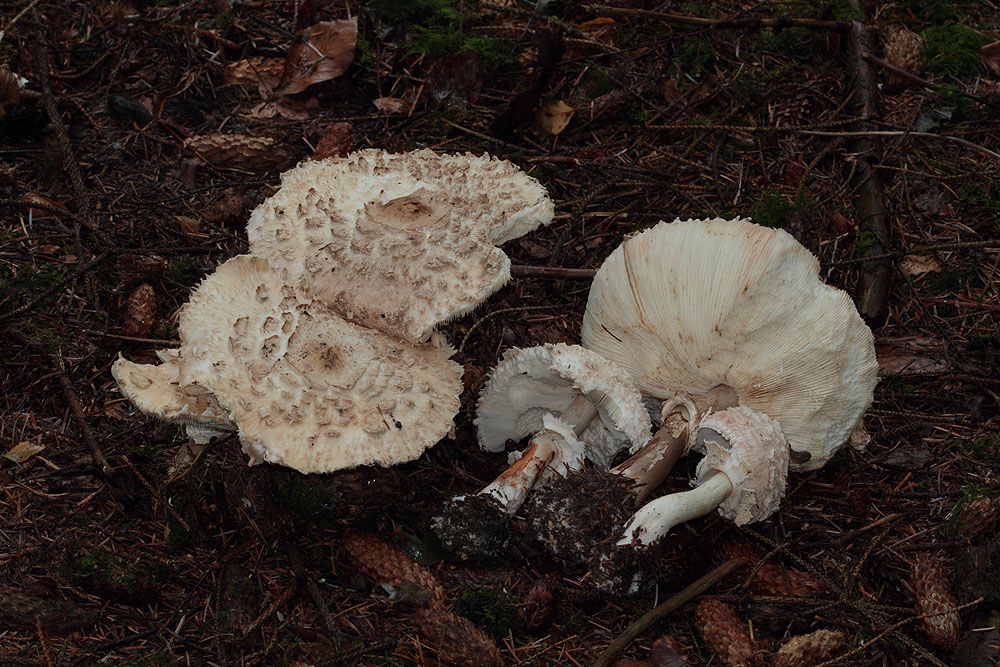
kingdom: Fungi
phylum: Basidiomycota
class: Agaricomycetes
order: Agaricales
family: Agaricaceae
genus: Chlorophyllum
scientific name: Chlorophyllum olivieri
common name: almindelig rabarberhat
